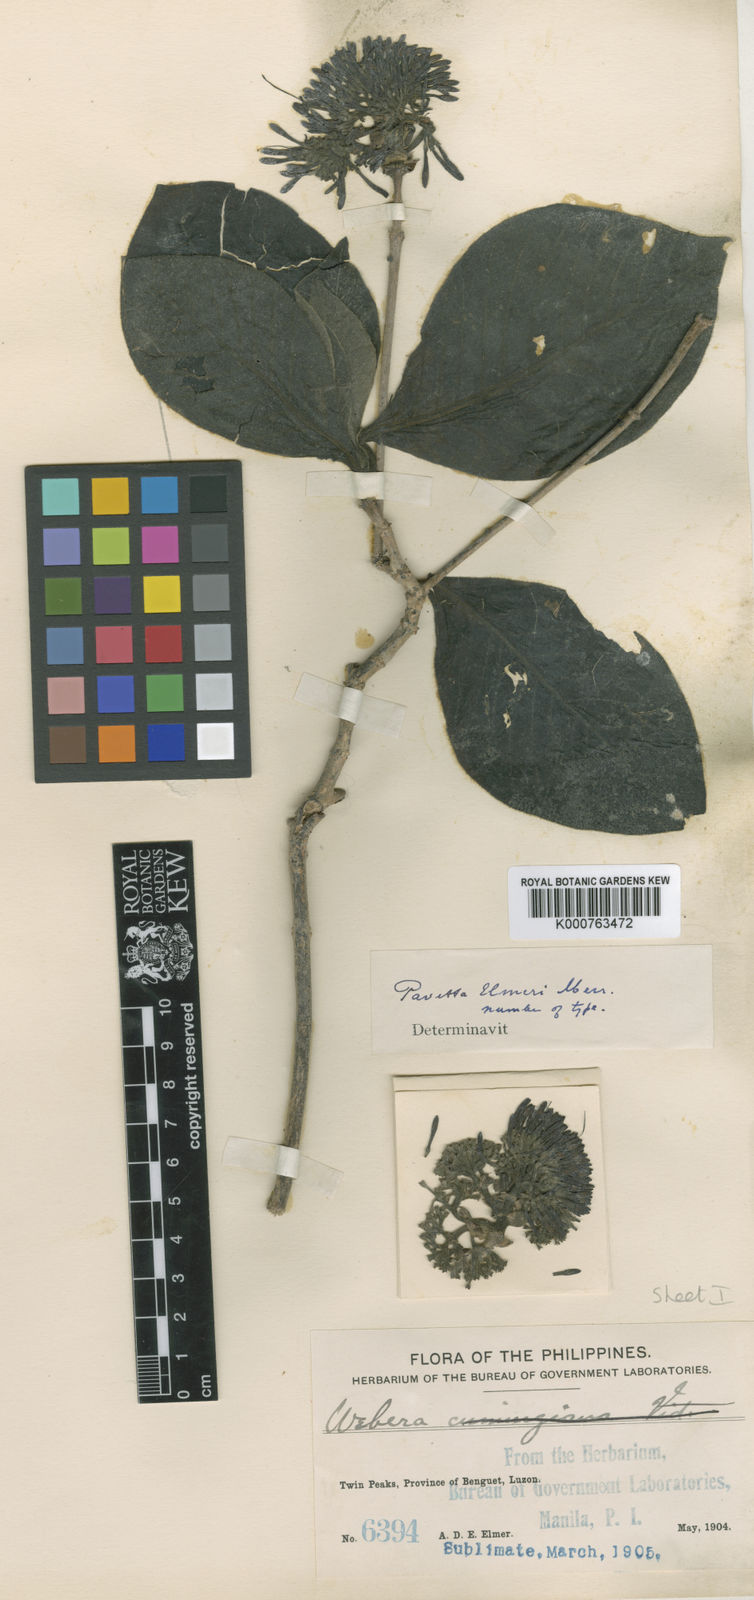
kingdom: Plantae
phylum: Tracheophyta
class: Magnoliopsida
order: Gentianales
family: Rubiaceae
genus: Pavetta
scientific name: Pavetta elmeri
